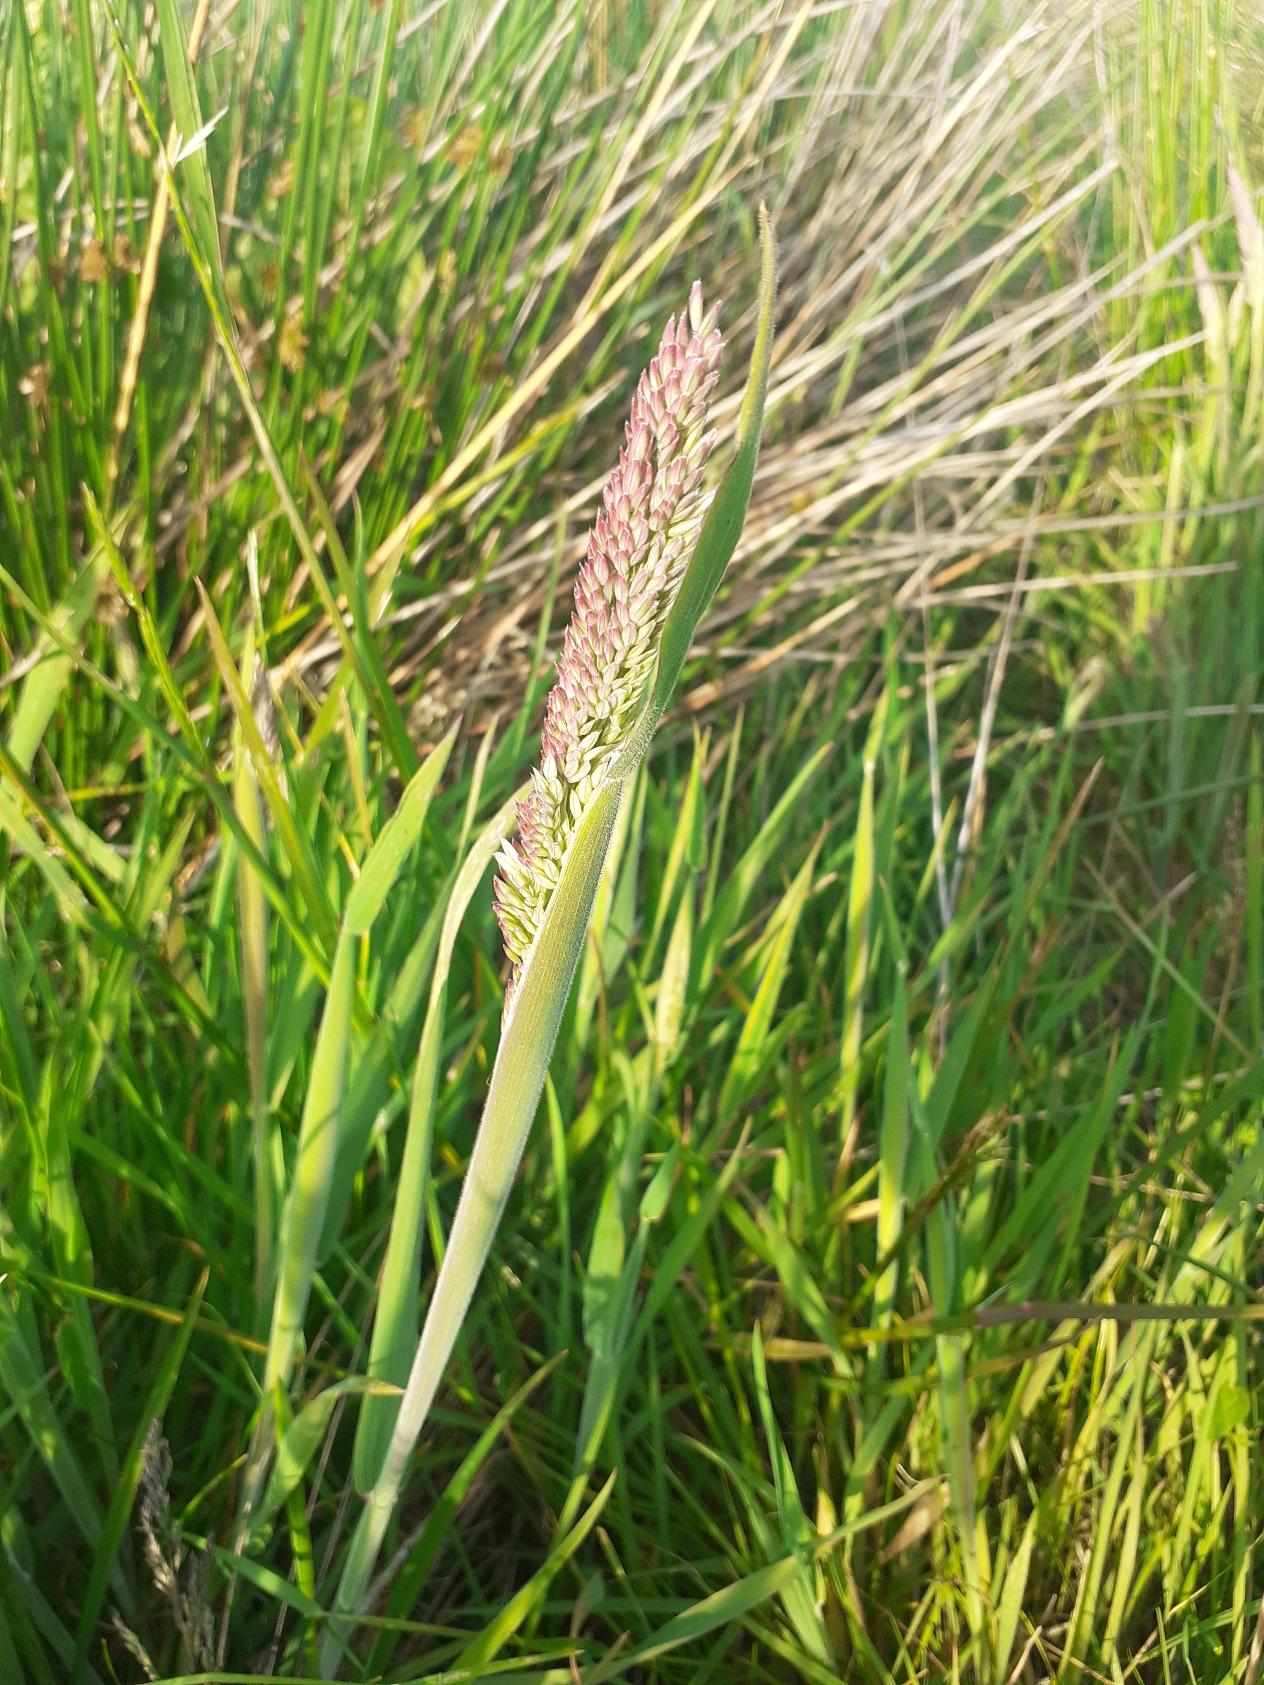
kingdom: Plantae
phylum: Tracheophyta
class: Liliopsida
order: Poales
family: Poaceae
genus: Holcus
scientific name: Holcus lanatus
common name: Fløjlsgræs
